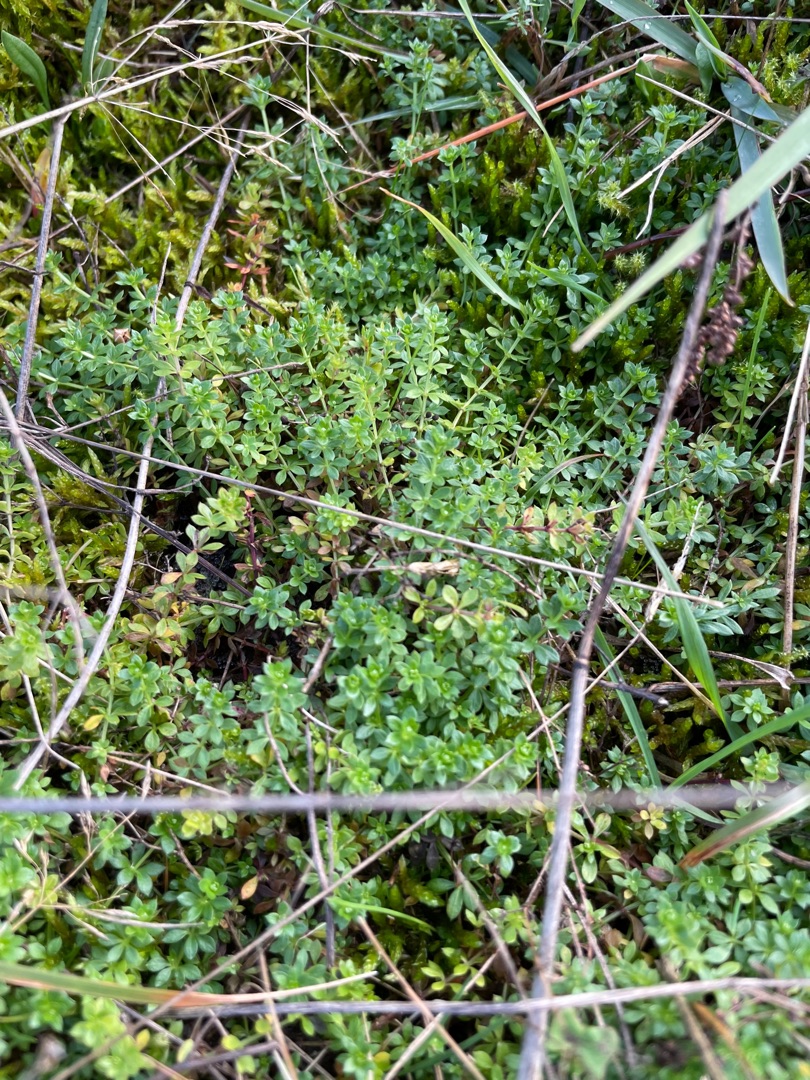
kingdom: Plantae
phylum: Tracheophyta
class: Magnoliopsida
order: Gentianales
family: Rubiaceae
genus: Galium
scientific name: Galium saxatile
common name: Lyng-snerre
